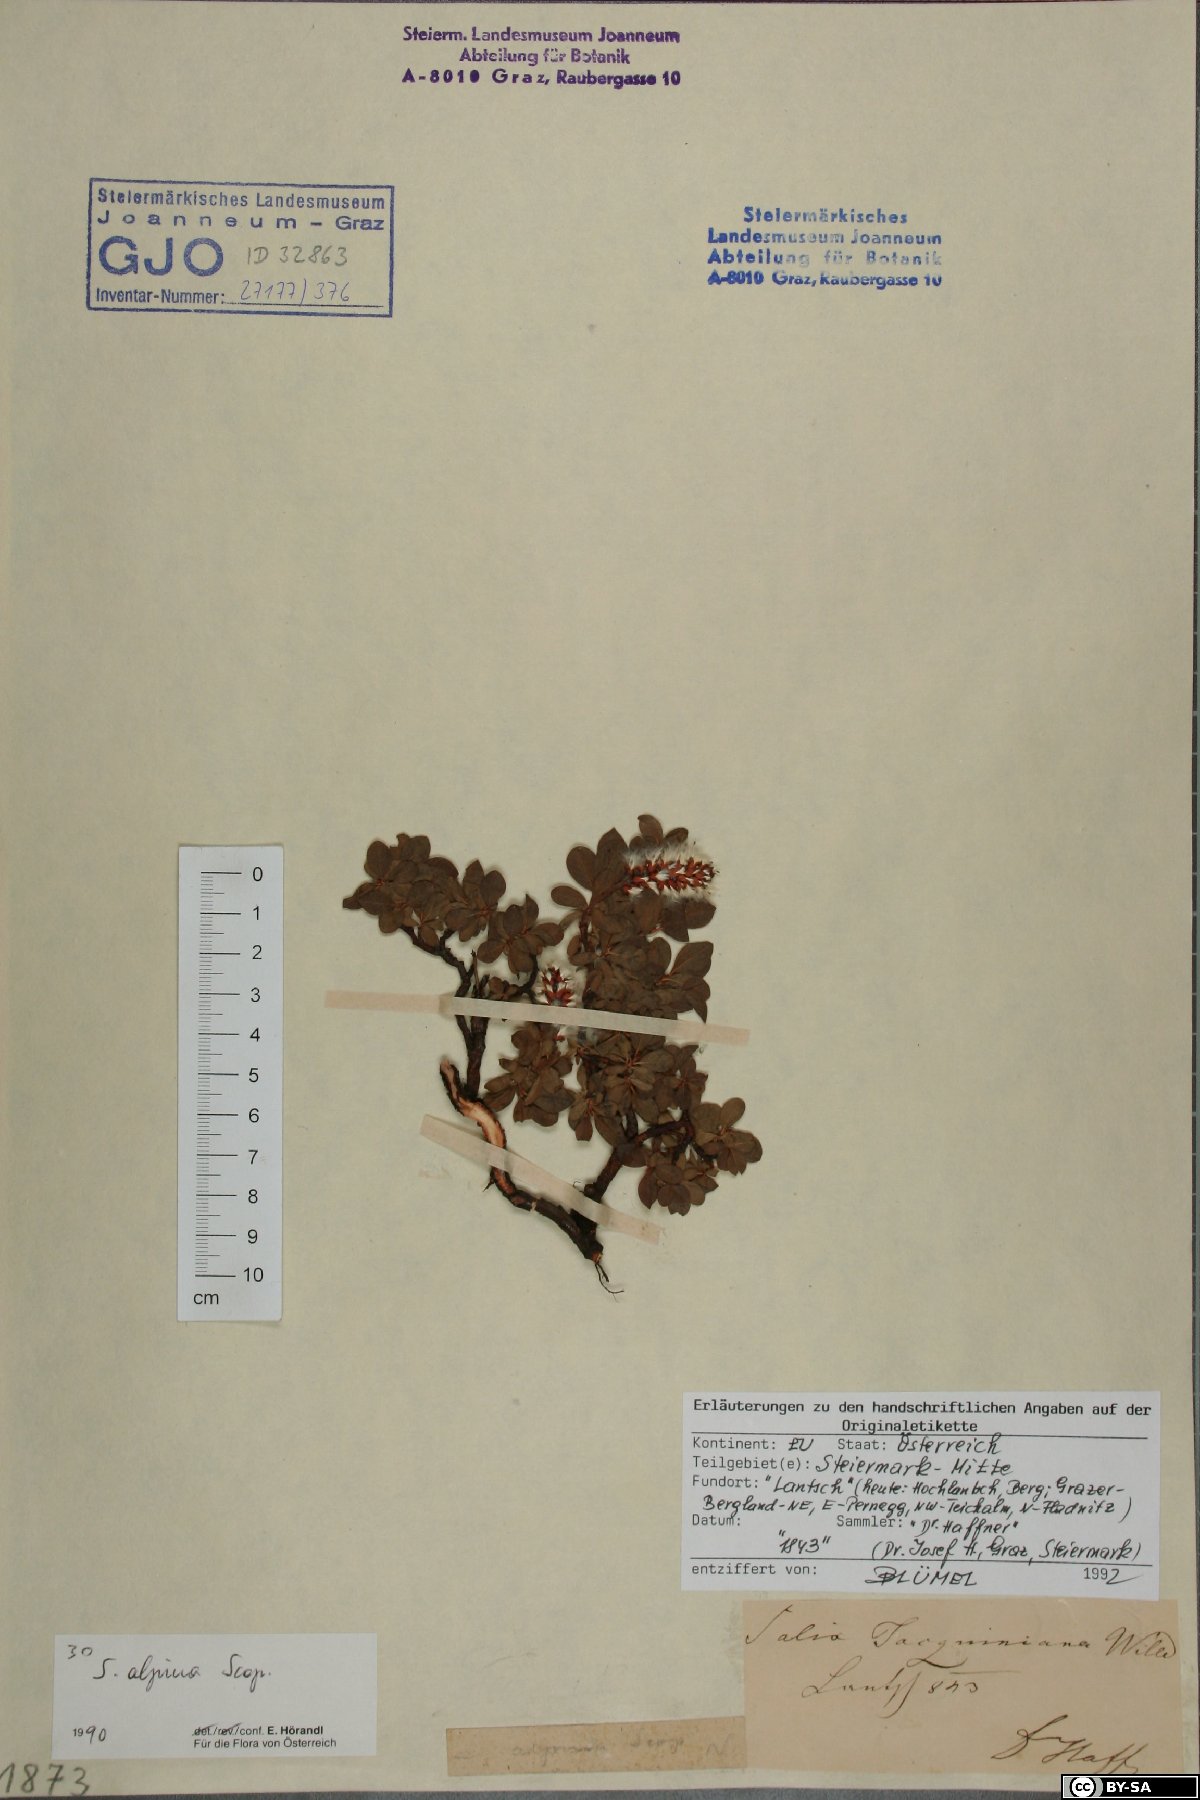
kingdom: Plantae
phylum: Tracheophyta
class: Magnoliopsida
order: Malpighiales
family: Salicaceae
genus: Salix
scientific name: Salix alpina
